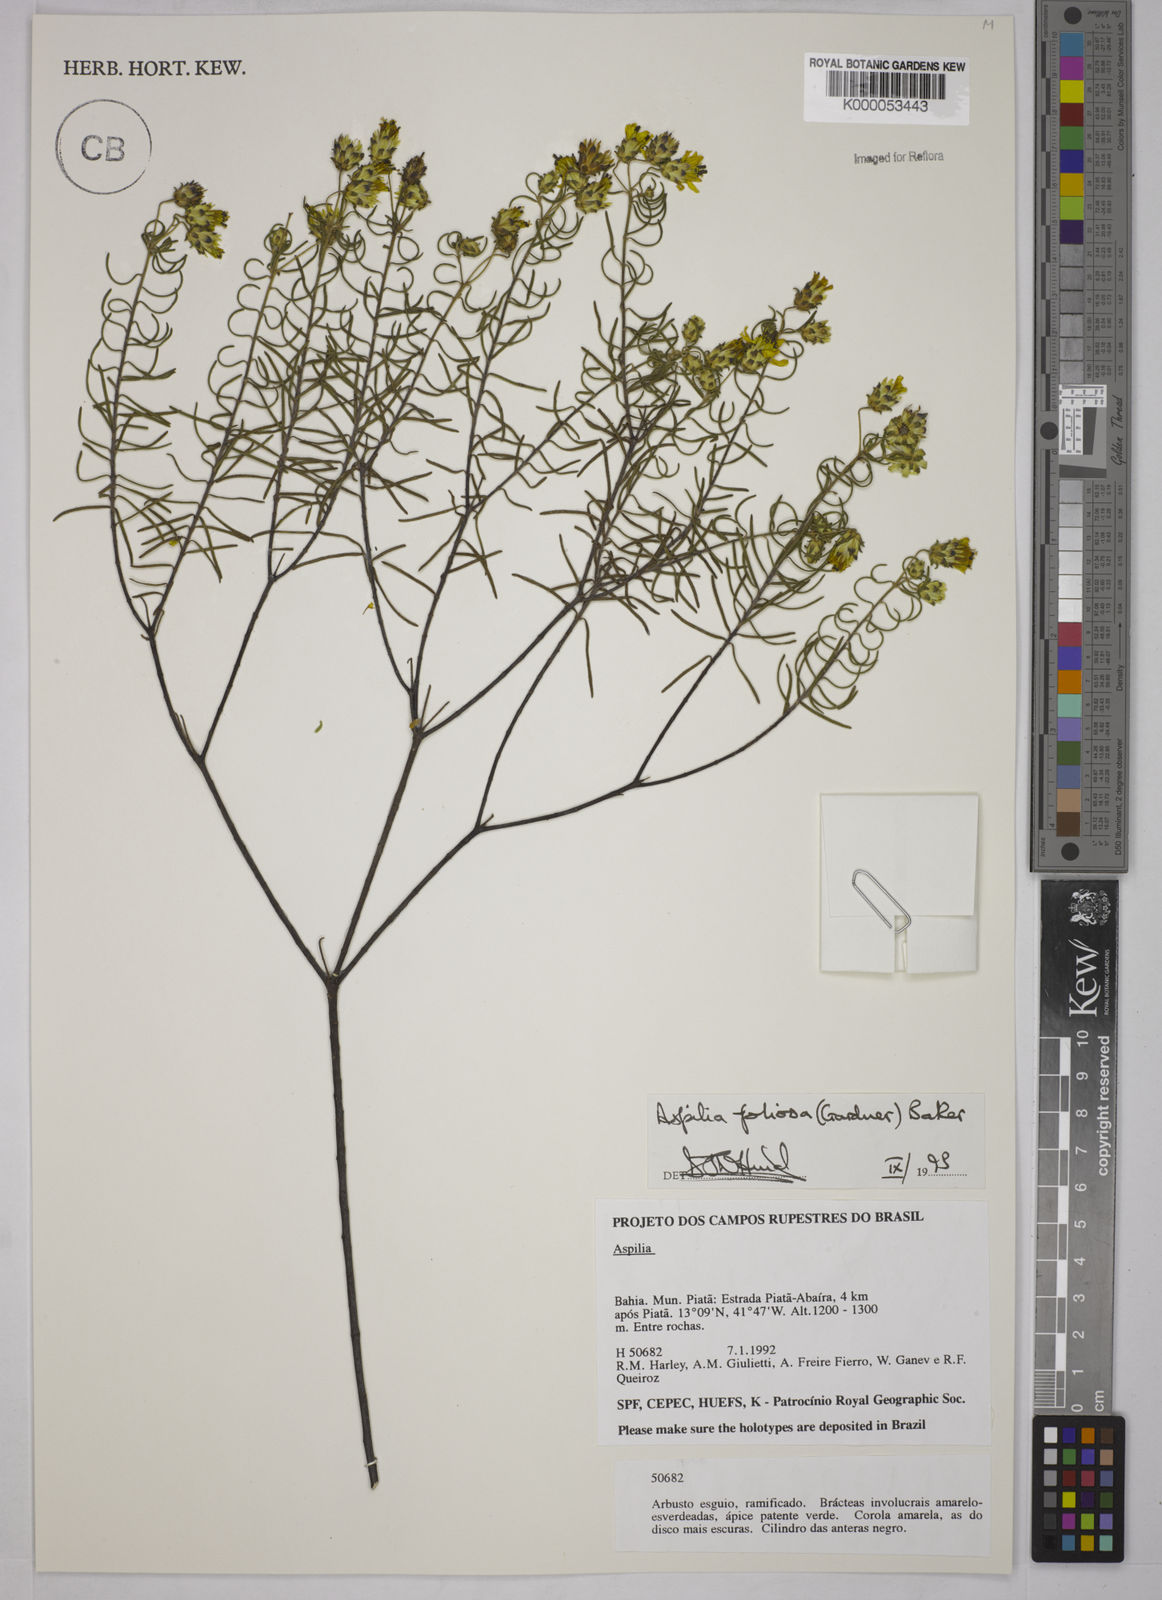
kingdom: Plantae
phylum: Tracheophyta
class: Magnoliopsida
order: Asterales
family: Asteraceae
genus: Aspilia
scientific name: Aspilia
